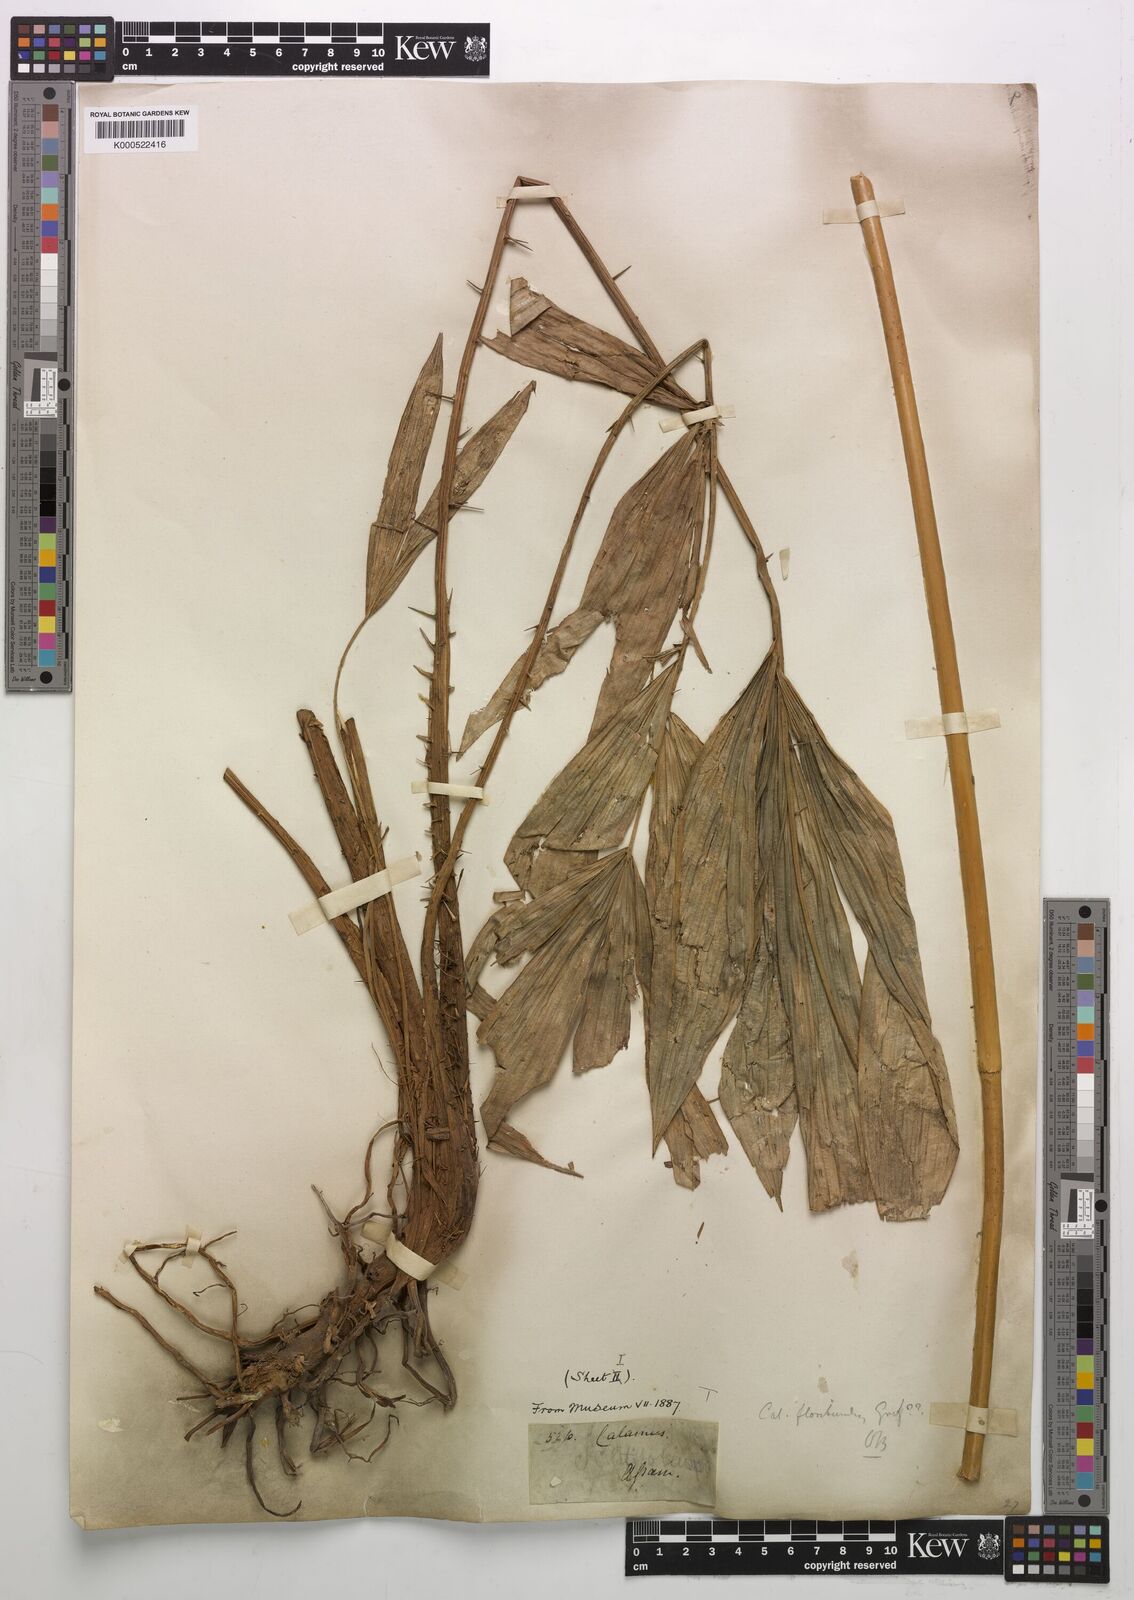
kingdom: Plantae
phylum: Tracheophyta
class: Liliopsida
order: Arecales
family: Arecaceae
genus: Calamus
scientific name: Calamus floribundus
